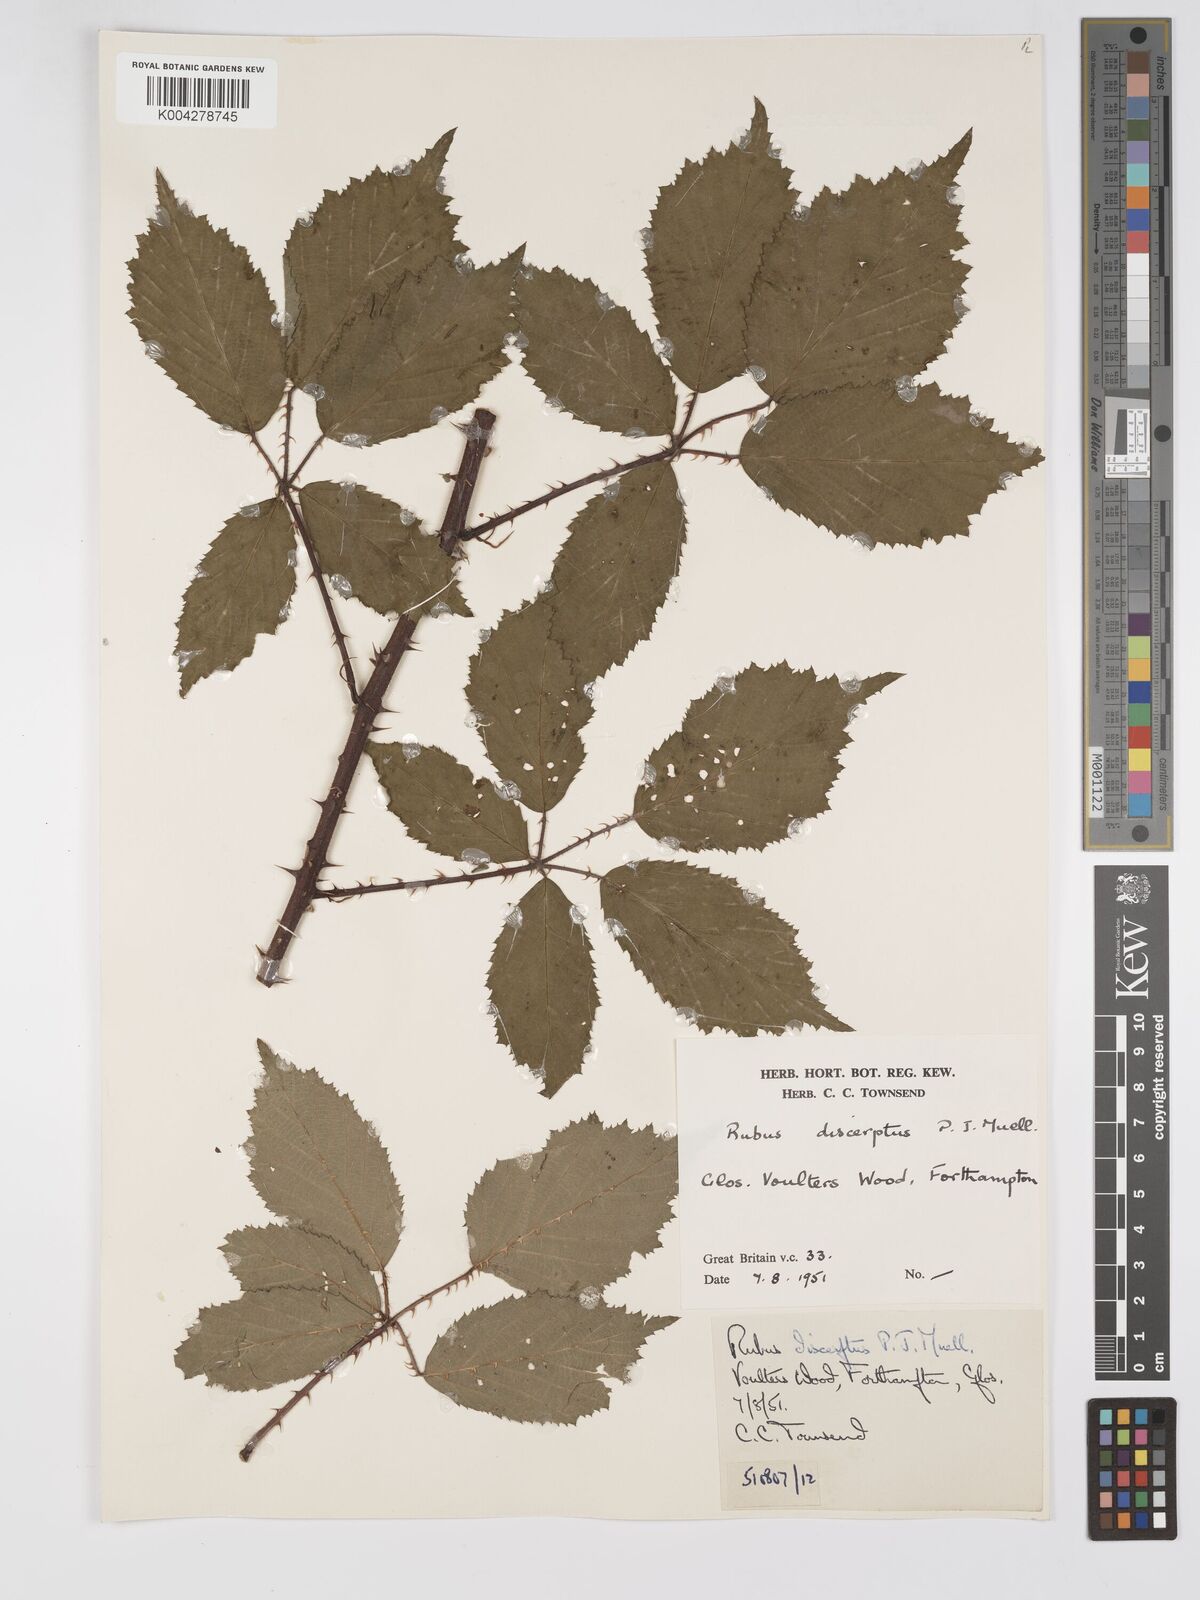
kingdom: Plantae
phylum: Tracheophyta
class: Magnoliopsida
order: Rosales
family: Rosaceae
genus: Rubus
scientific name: Rubus echinatus
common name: Echinate bramble
